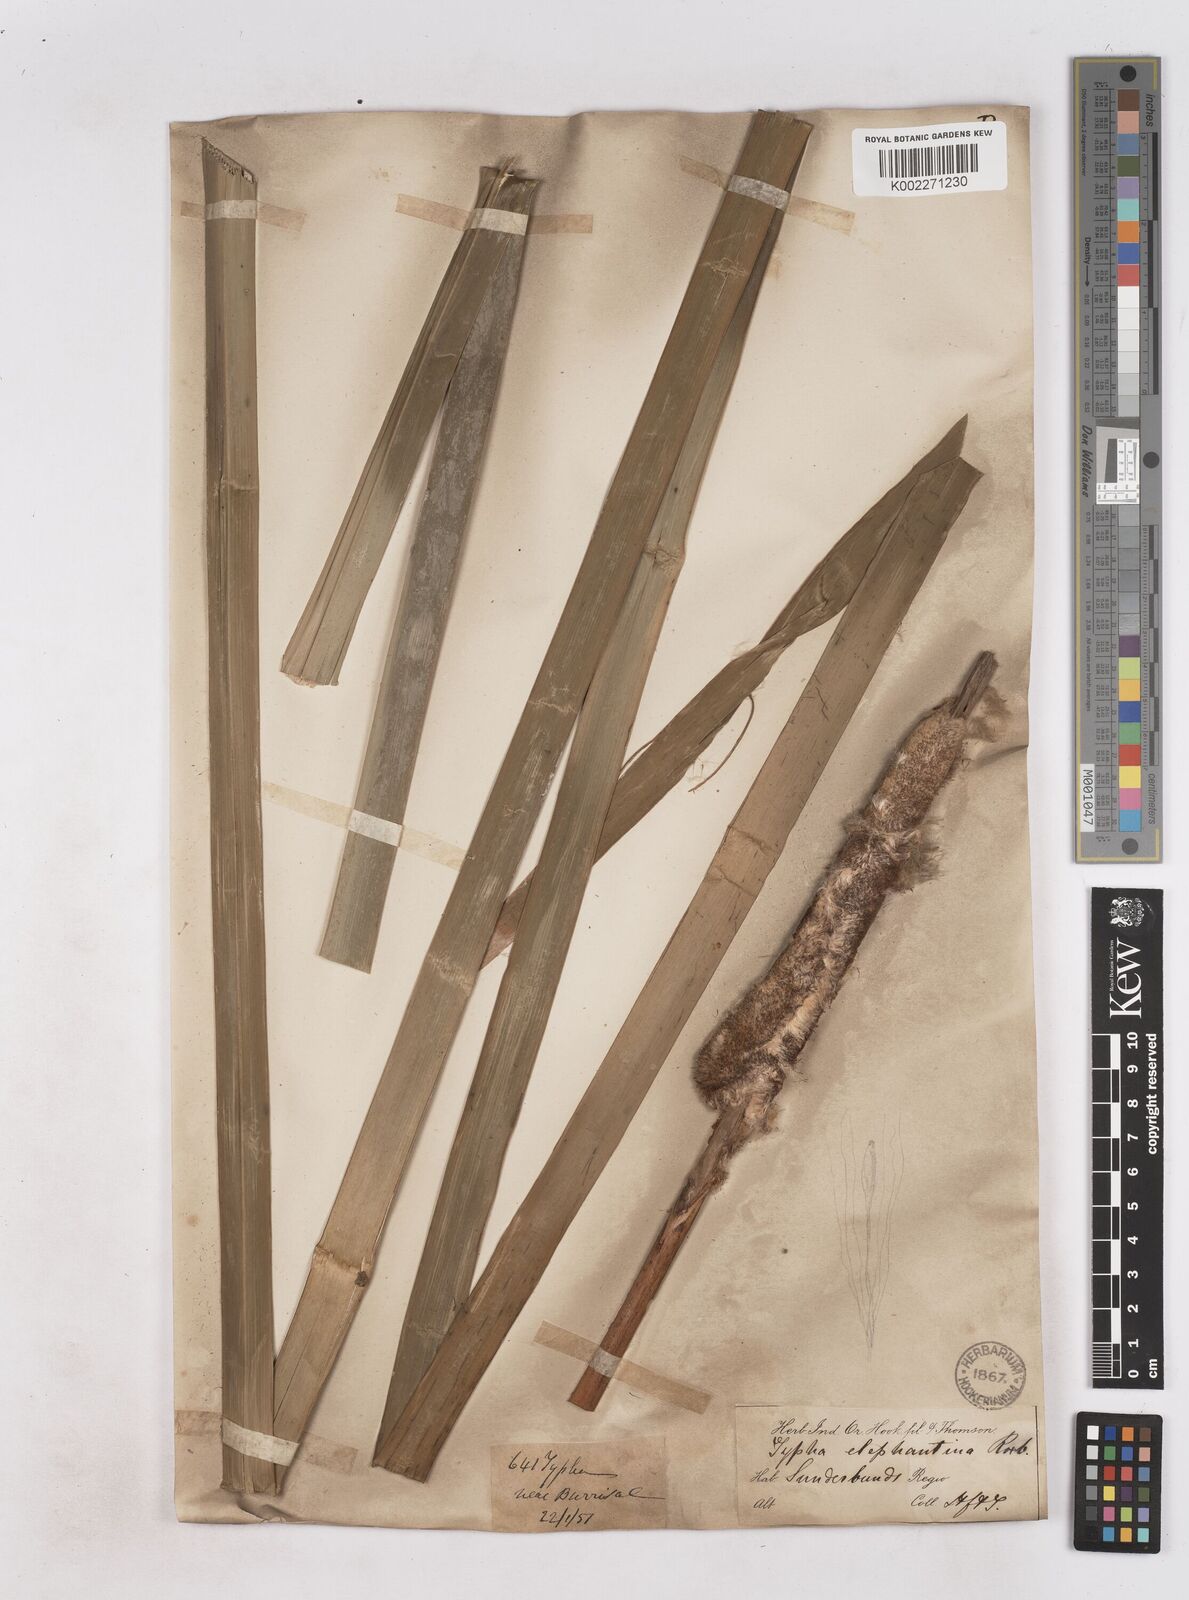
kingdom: Plantae
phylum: Tracheophyta
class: Liliopsida
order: Poales
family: Typhaceae
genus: Typha
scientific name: Typha elephantina
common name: Indian reed-grass
